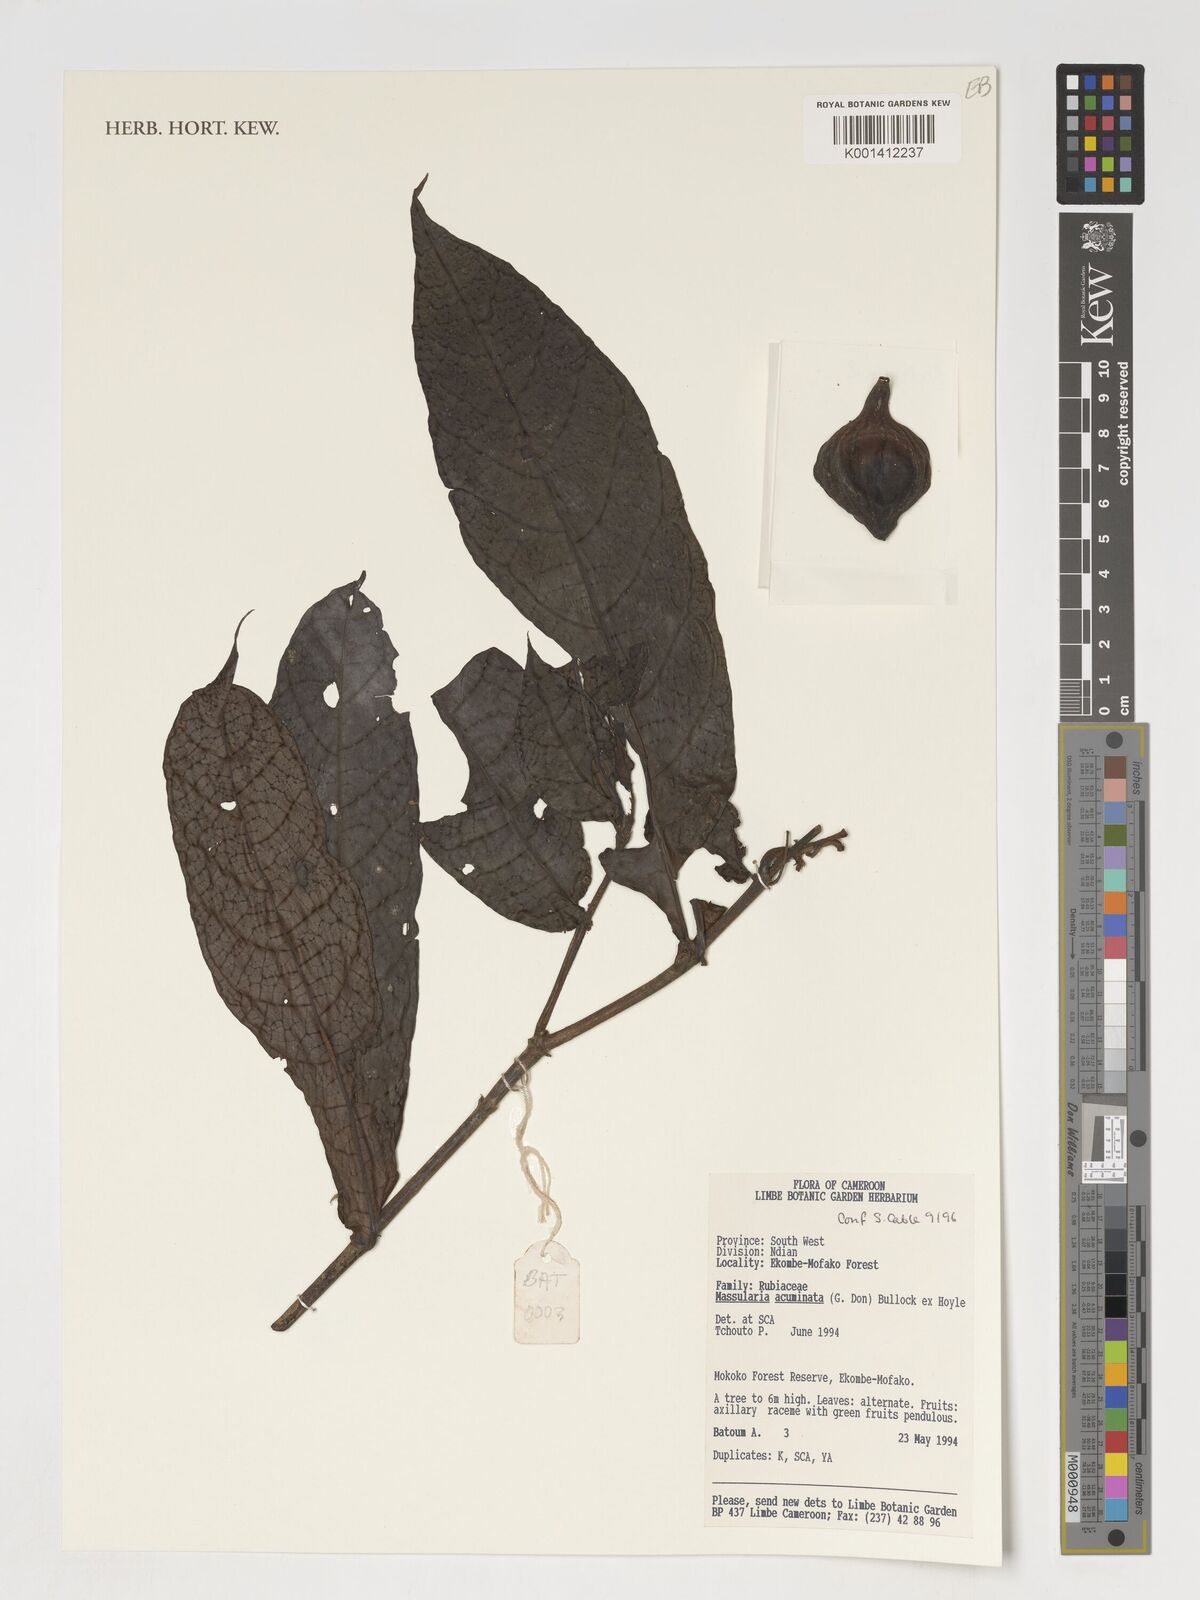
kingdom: Plantae
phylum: Tracheophyta
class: Magnoliopsida
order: Gentianales
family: Rubiaceae
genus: Massularia
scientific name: Massularia acuminata
